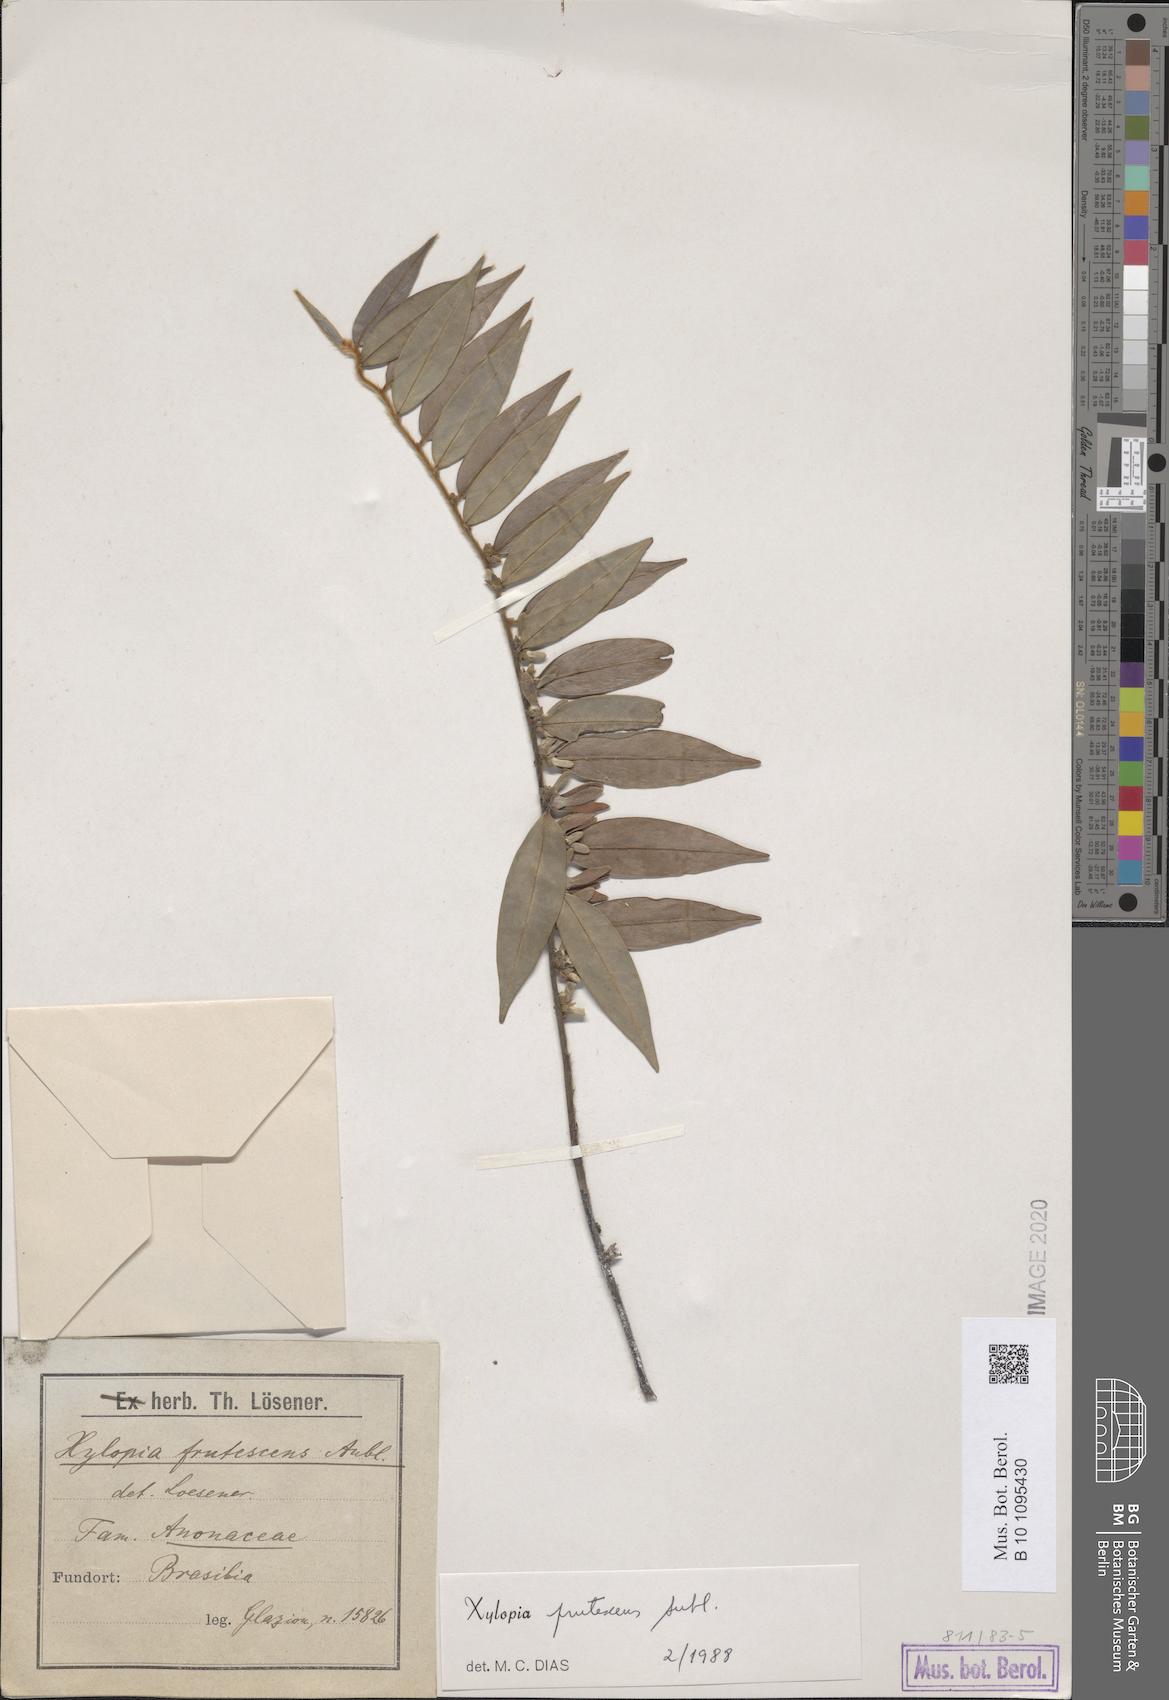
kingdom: Plantae
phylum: Tracheophyta
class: Magnoliopsida
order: Magnoliales
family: Annonaceae
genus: Xylopia
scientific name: Xylopia frutescens
